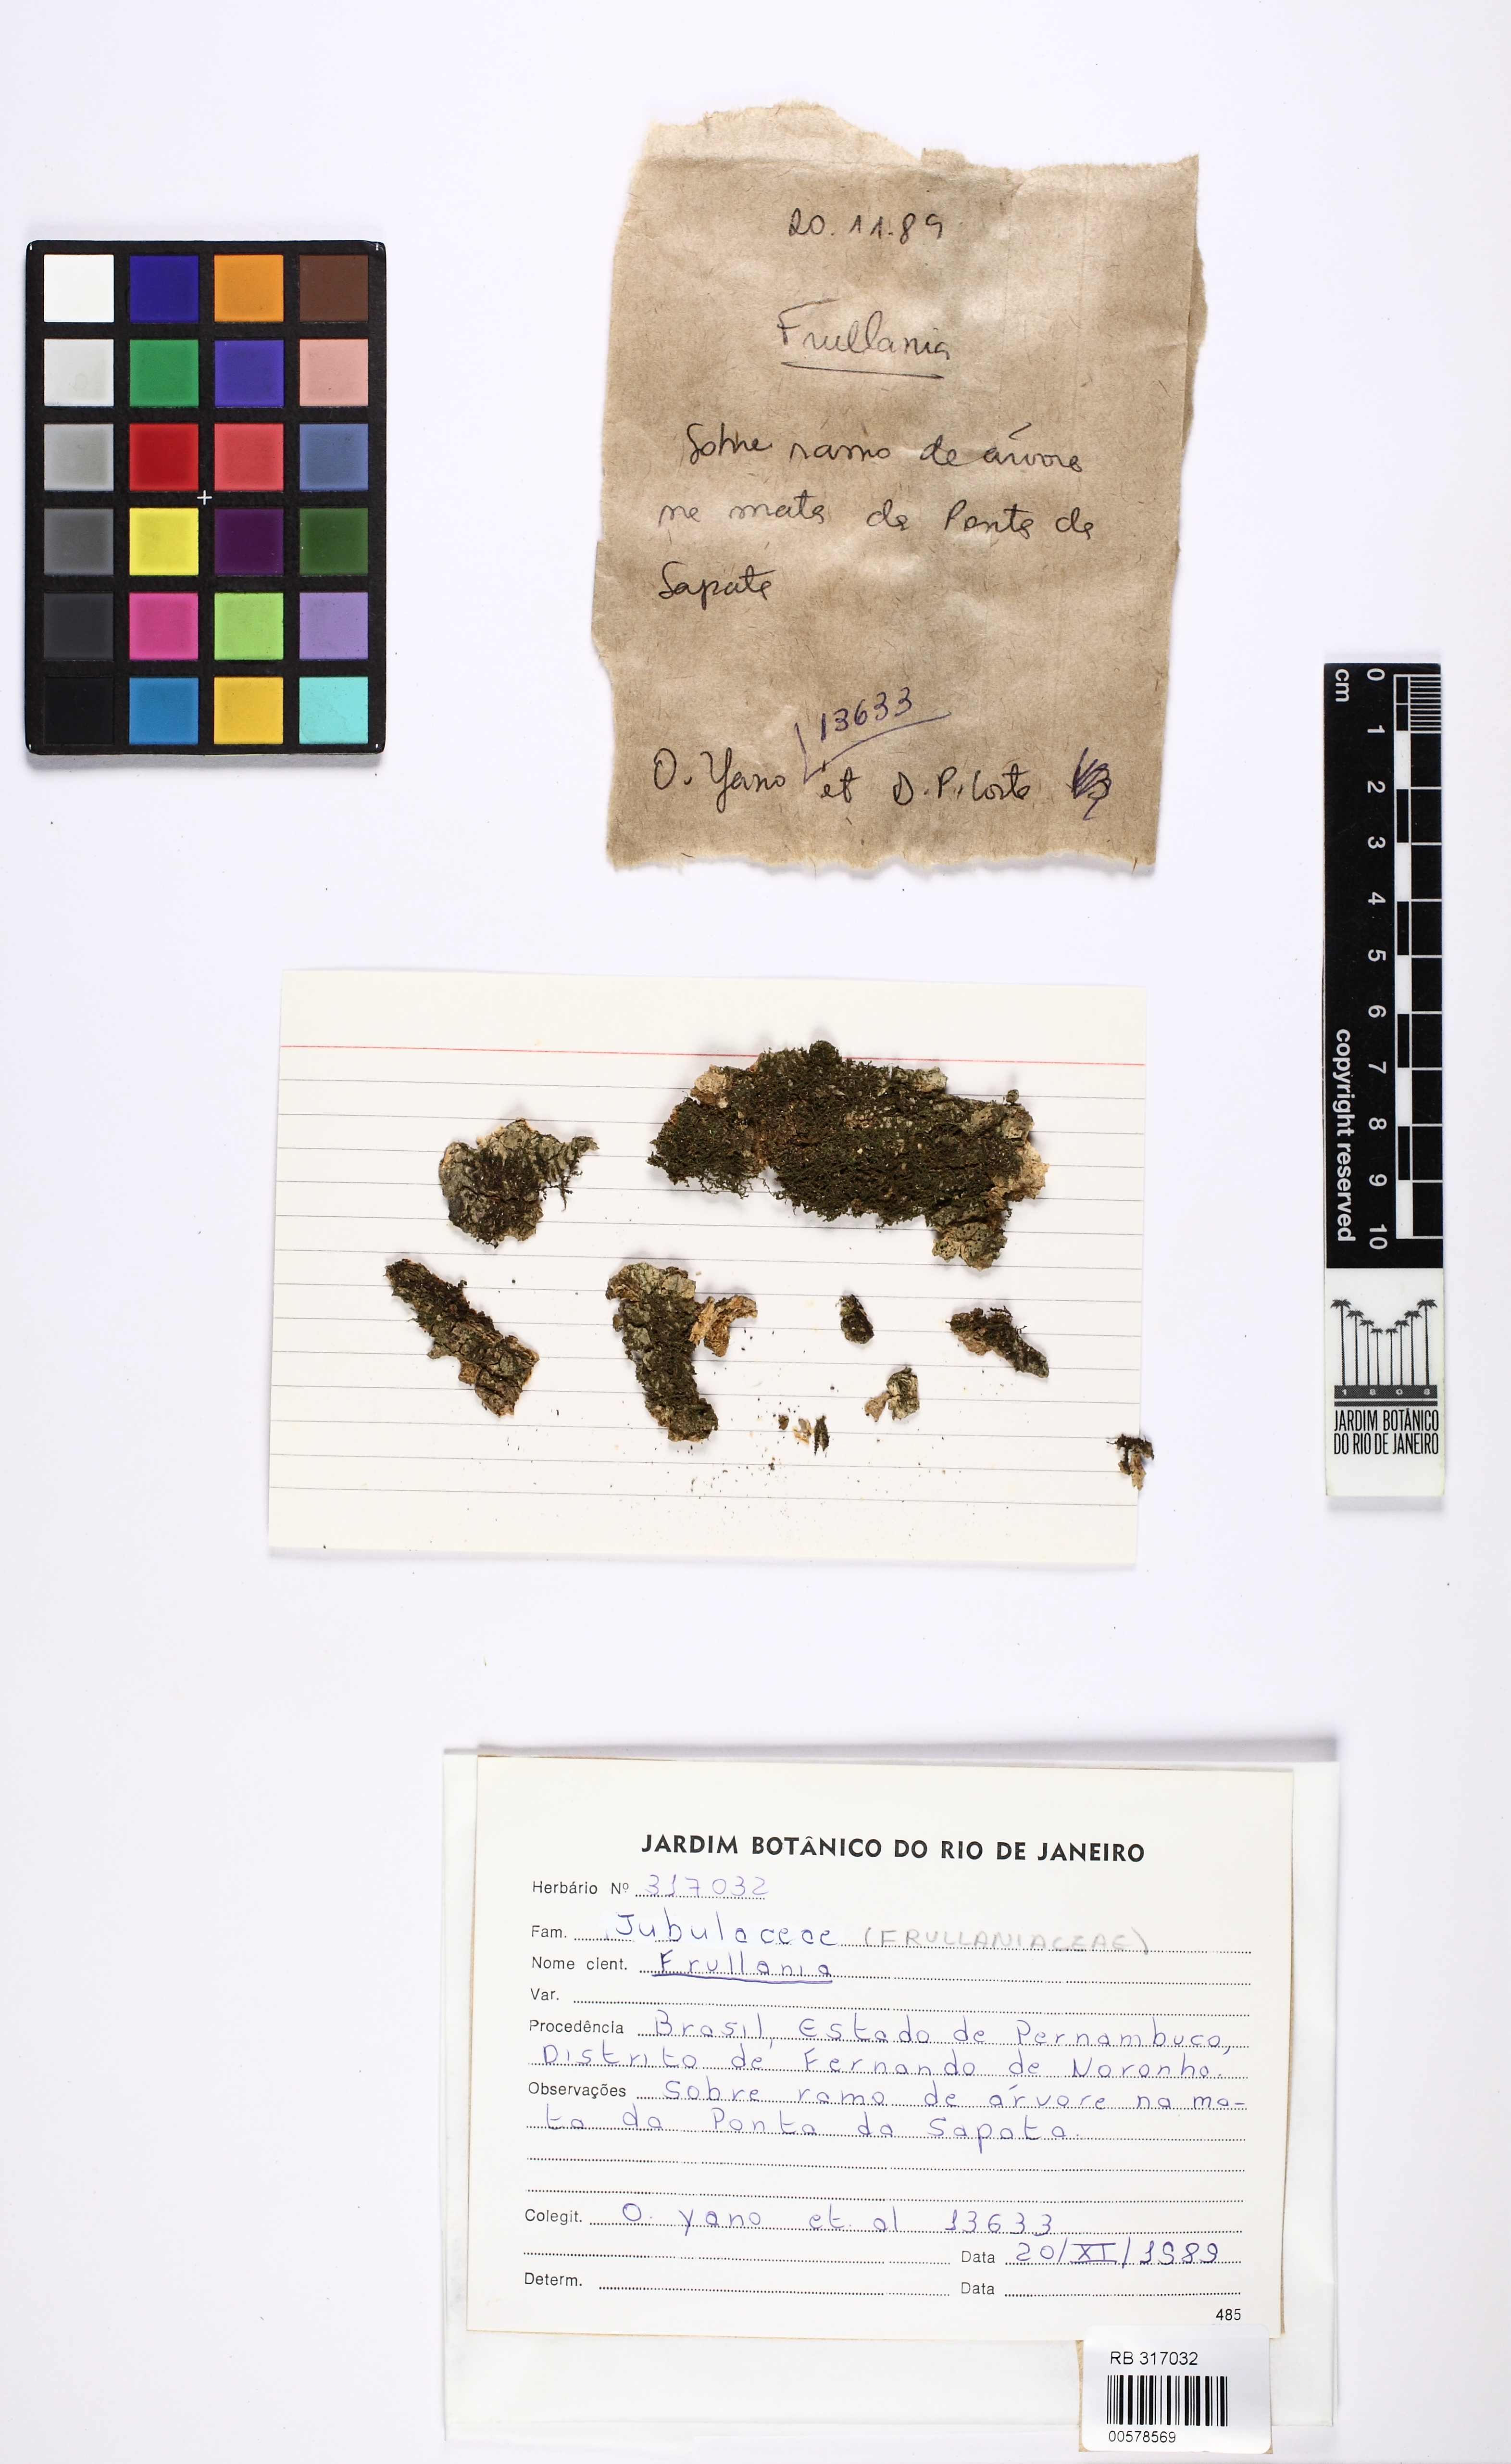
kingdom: Plantae
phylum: Marchantiophyta
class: Jungermanniopsida
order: Porellales
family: Frullaniaceae
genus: Frullania
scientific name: Frullania ericoides
